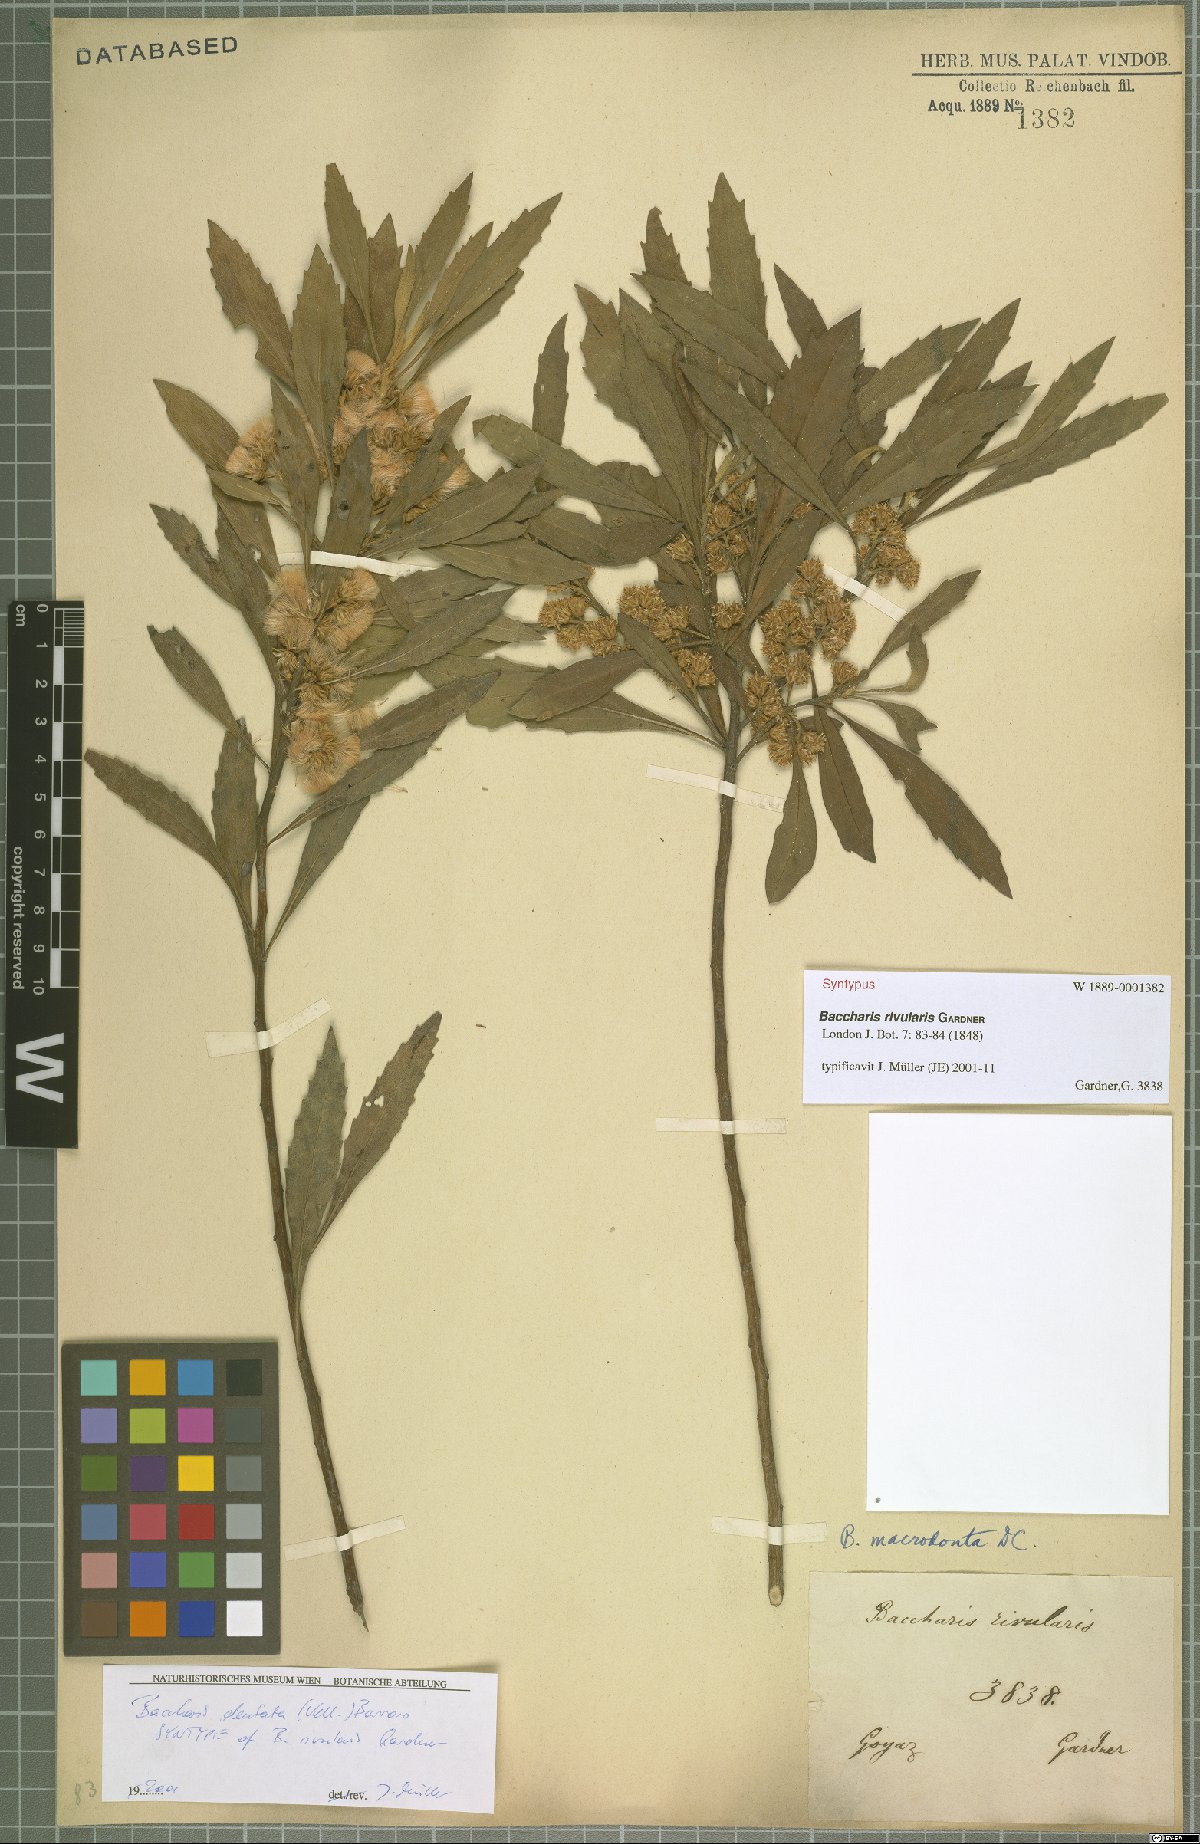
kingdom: Plantae
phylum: Tracheophyta
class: Magnoliopsida
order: Asterales
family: Asteraceae
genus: Baccharis
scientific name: Baccharis rivularis
